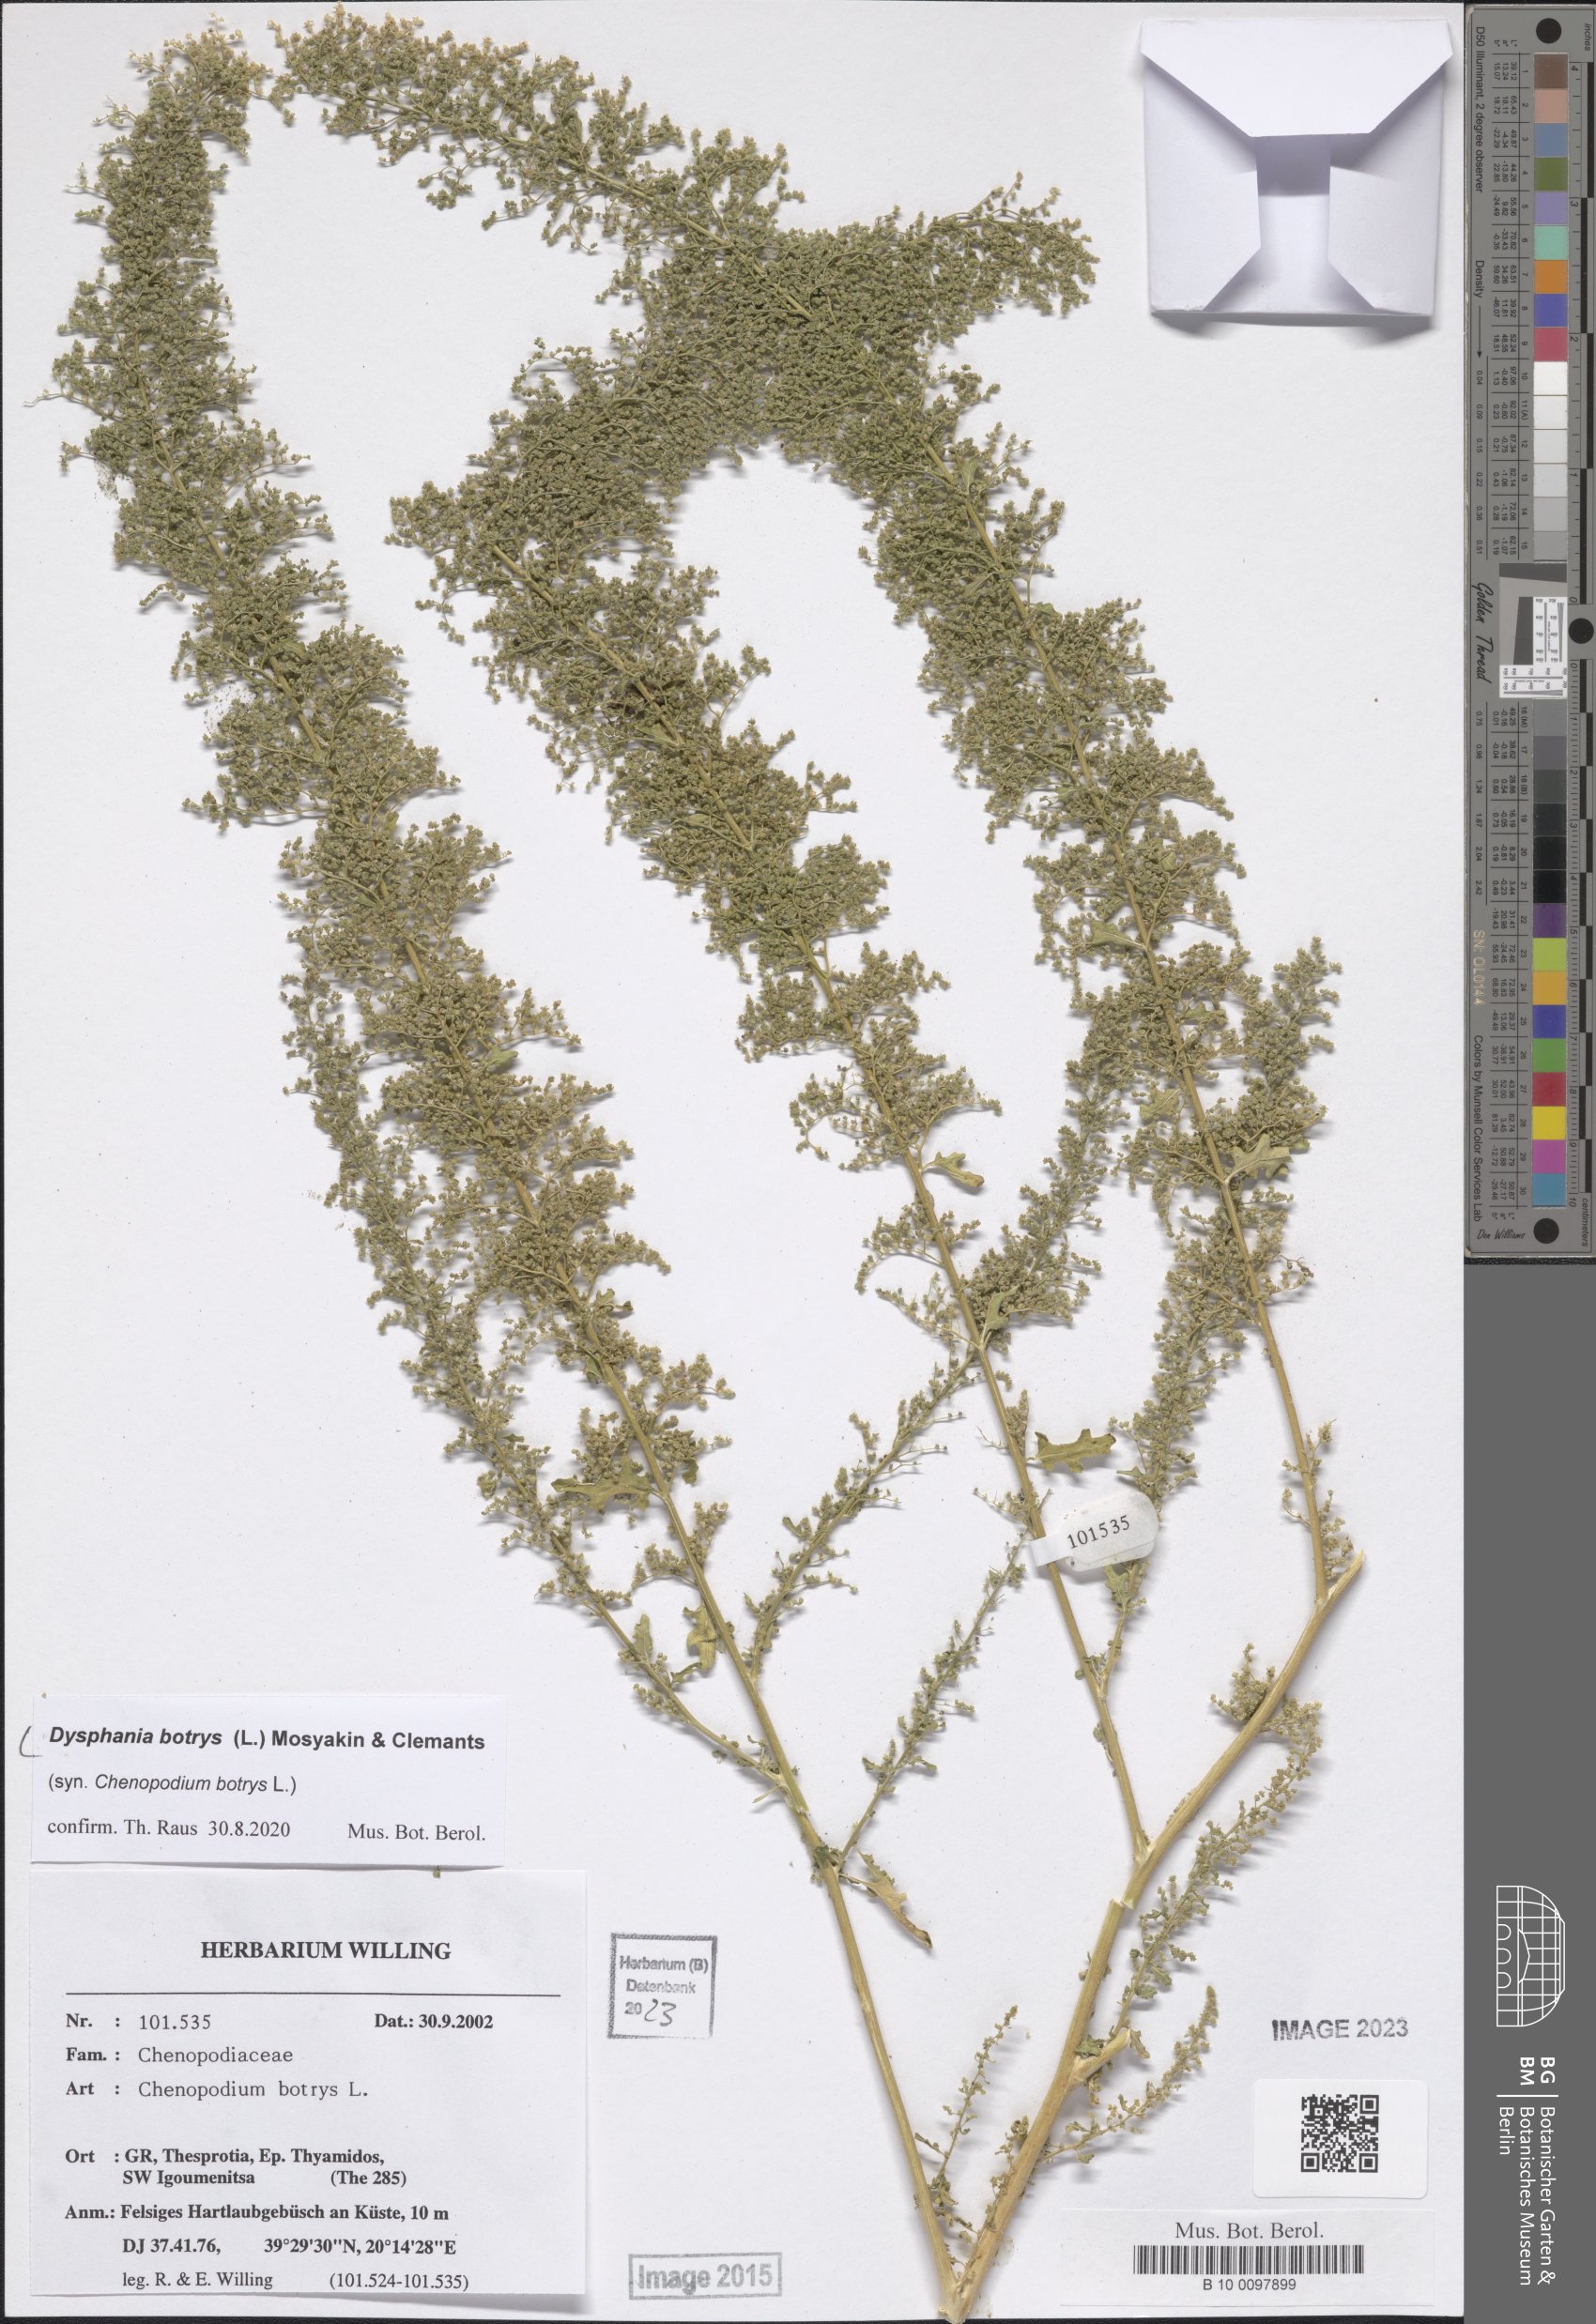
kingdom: Plantae
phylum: Tracheophyta
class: Magnoliopsida
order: Caryophyllales
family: Amaranthaceae
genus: Dysphania
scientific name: Dysphania botrys
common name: Feather-geranium
